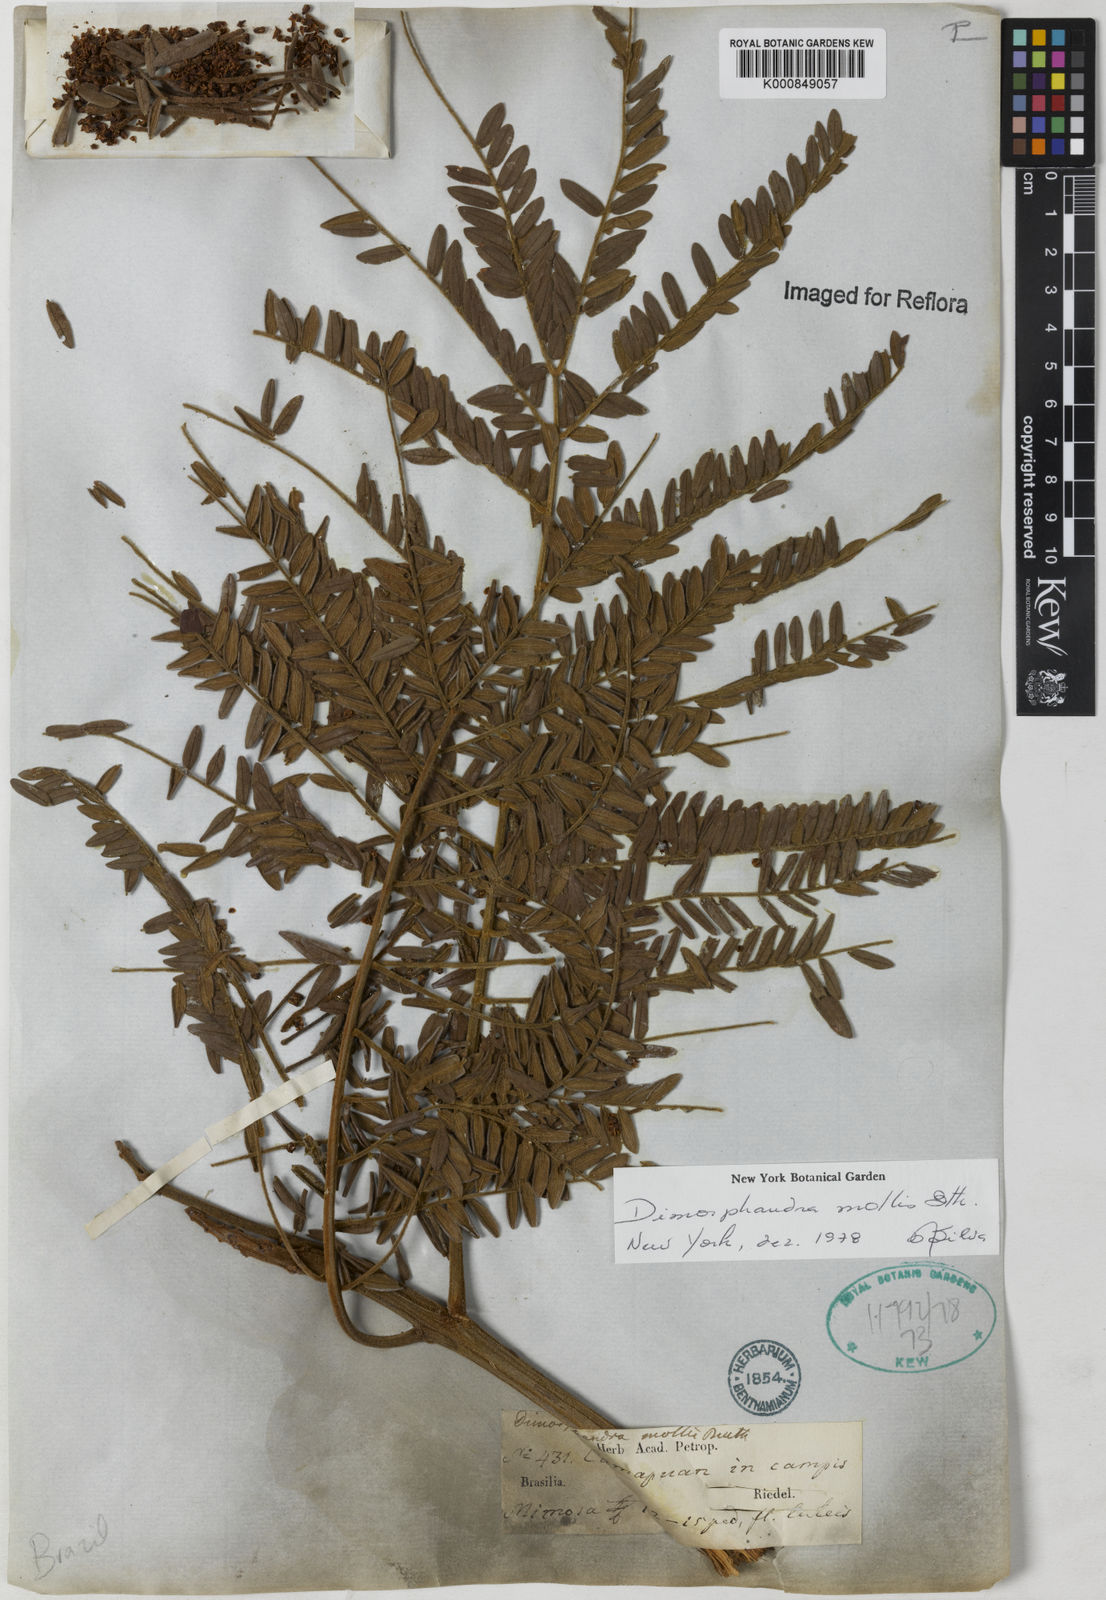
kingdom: Plantae
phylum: Tracheophyta
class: Magnoliopsida
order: Fabales
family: Fabaceae
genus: Dimorphandra
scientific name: Dimorphandra mollis
